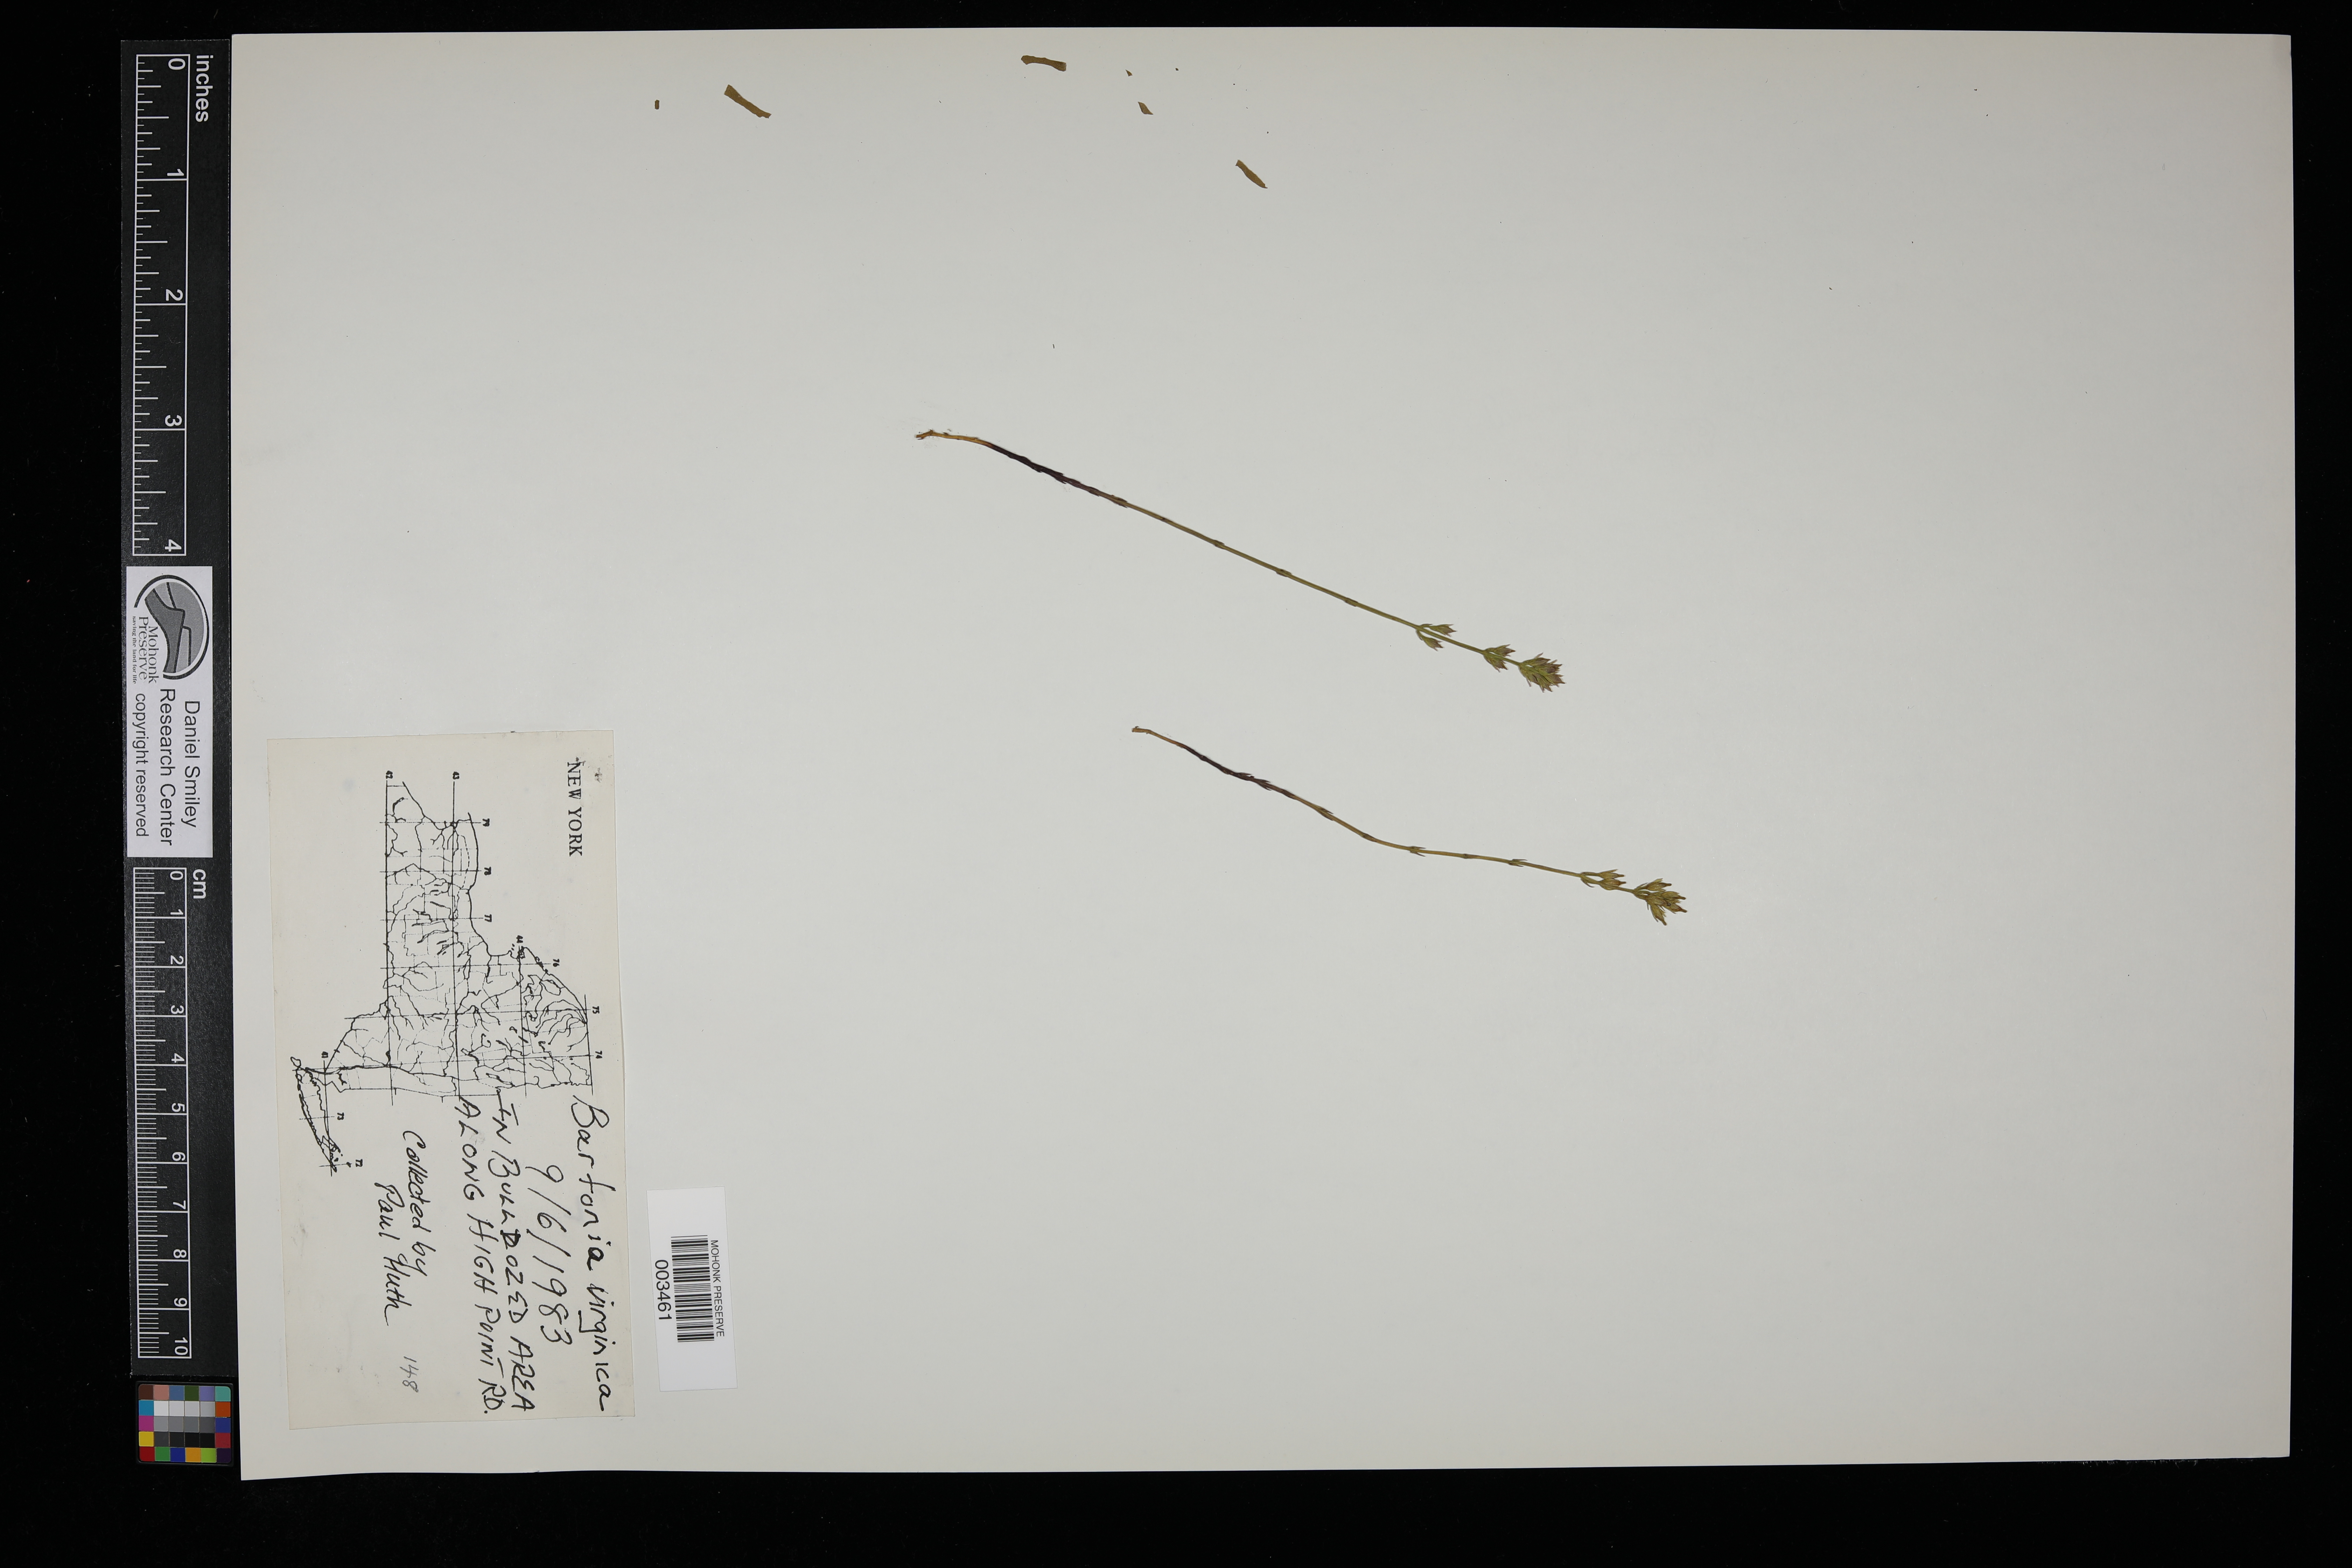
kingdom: Plantae
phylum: Tracheophyta
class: Magnoliopsida
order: Gentianales
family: Gentianaceae
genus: Bartonia
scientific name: Bartonia virginica
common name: Yellow bartonia
